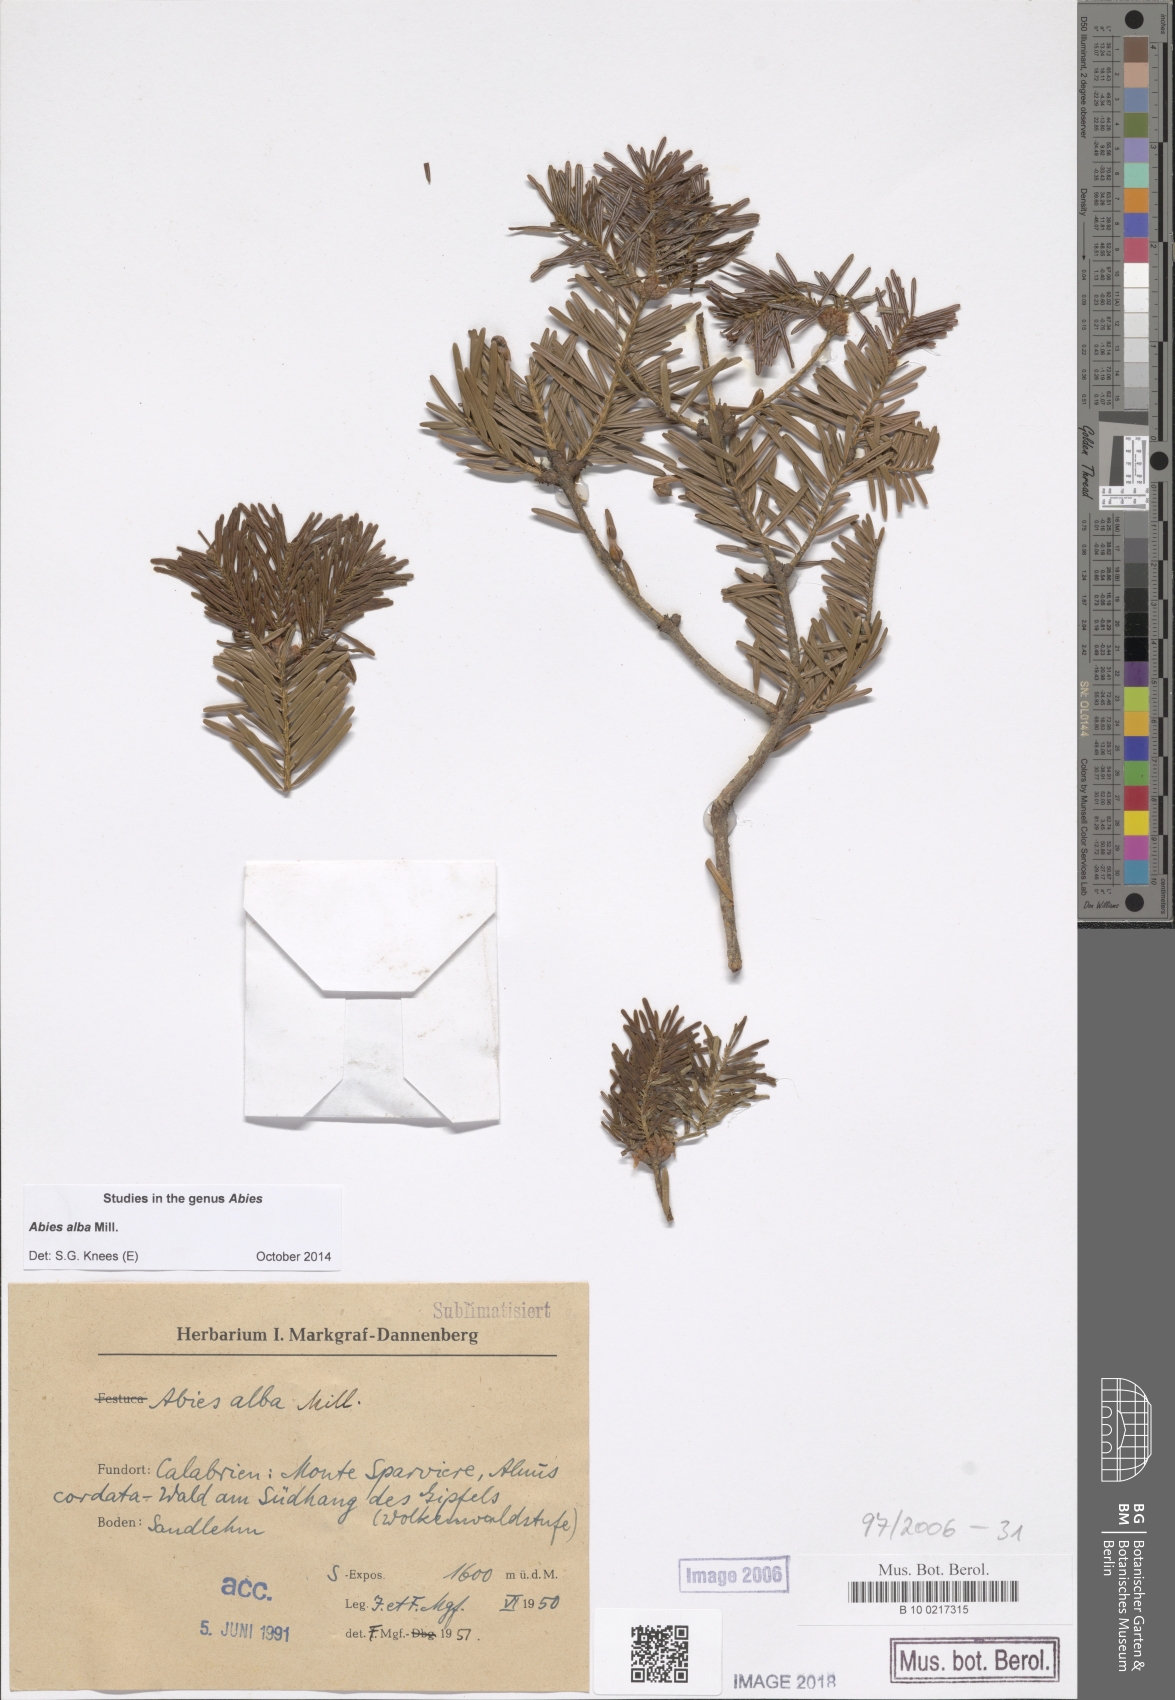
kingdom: Plantae
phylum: Tracheophyta
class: Pinopsida
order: Pinales
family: Pinaceae
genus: Abies
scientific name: Abies alba
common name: Silver fir
